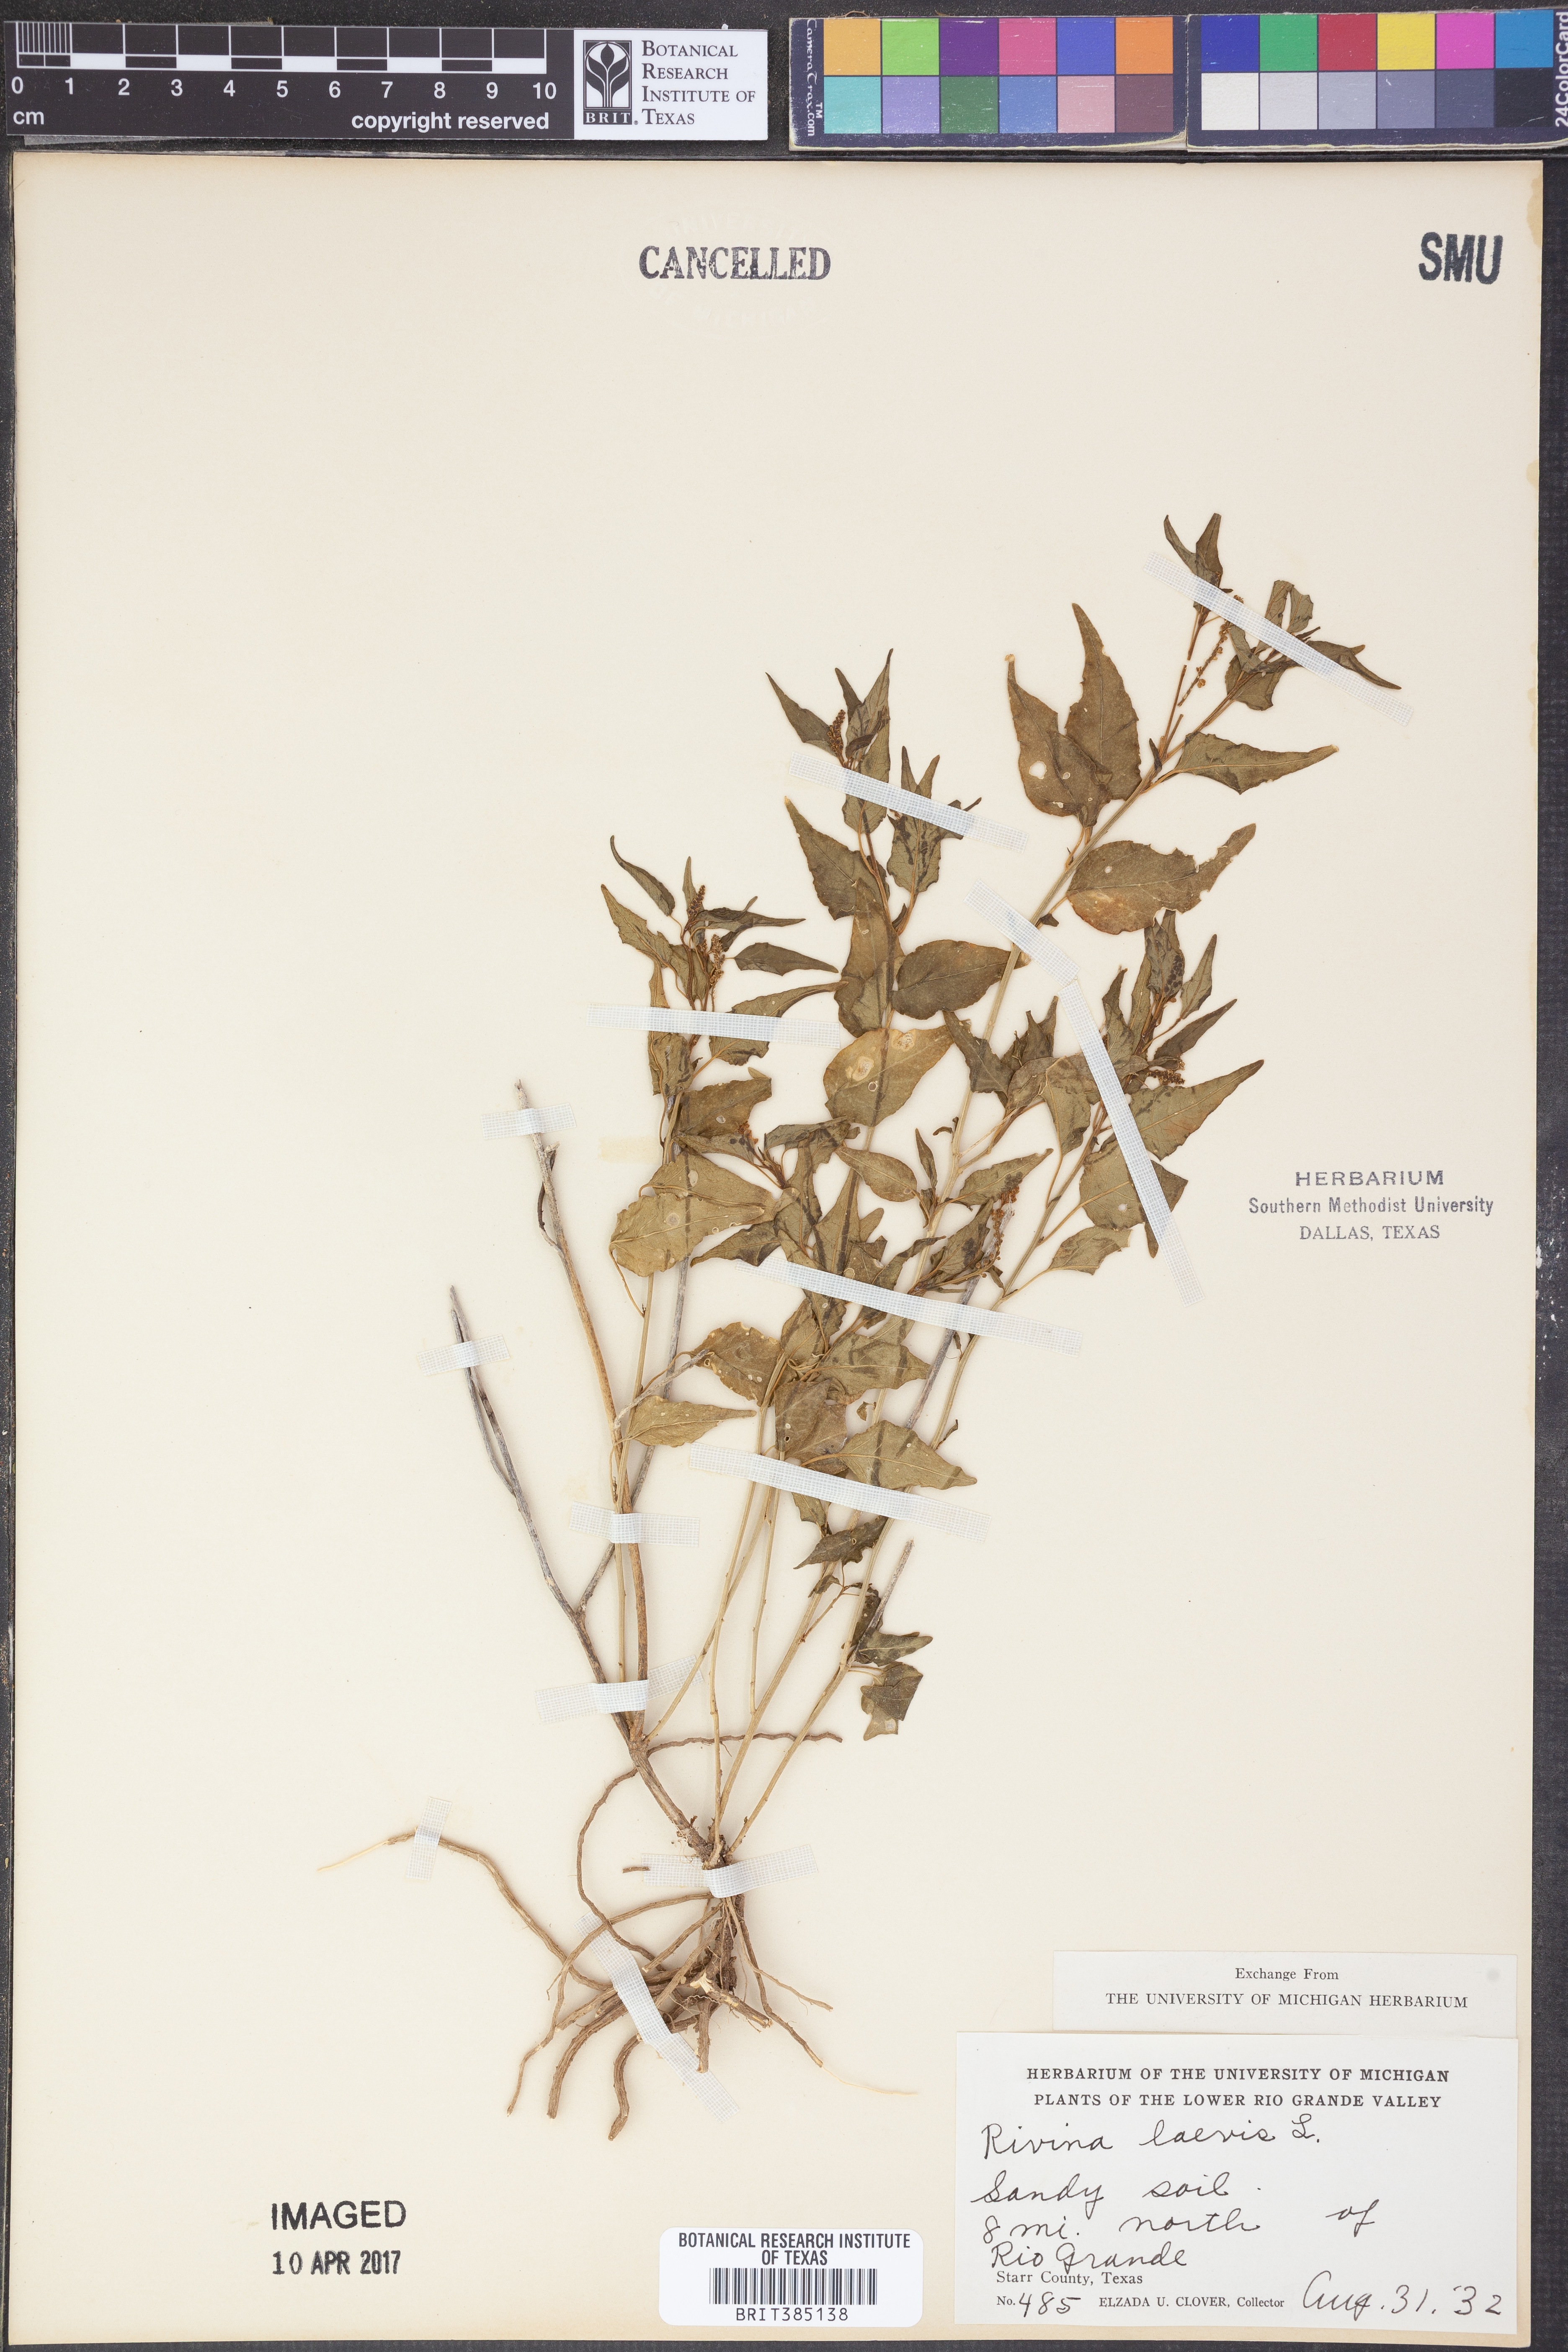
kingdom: Plantae
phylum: Tracheophyta
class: Magnoliopsida
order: Caryophyllales
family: Phytolaccaceae
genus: Rivina
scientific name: Rivina humilis
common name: Rougeplant
